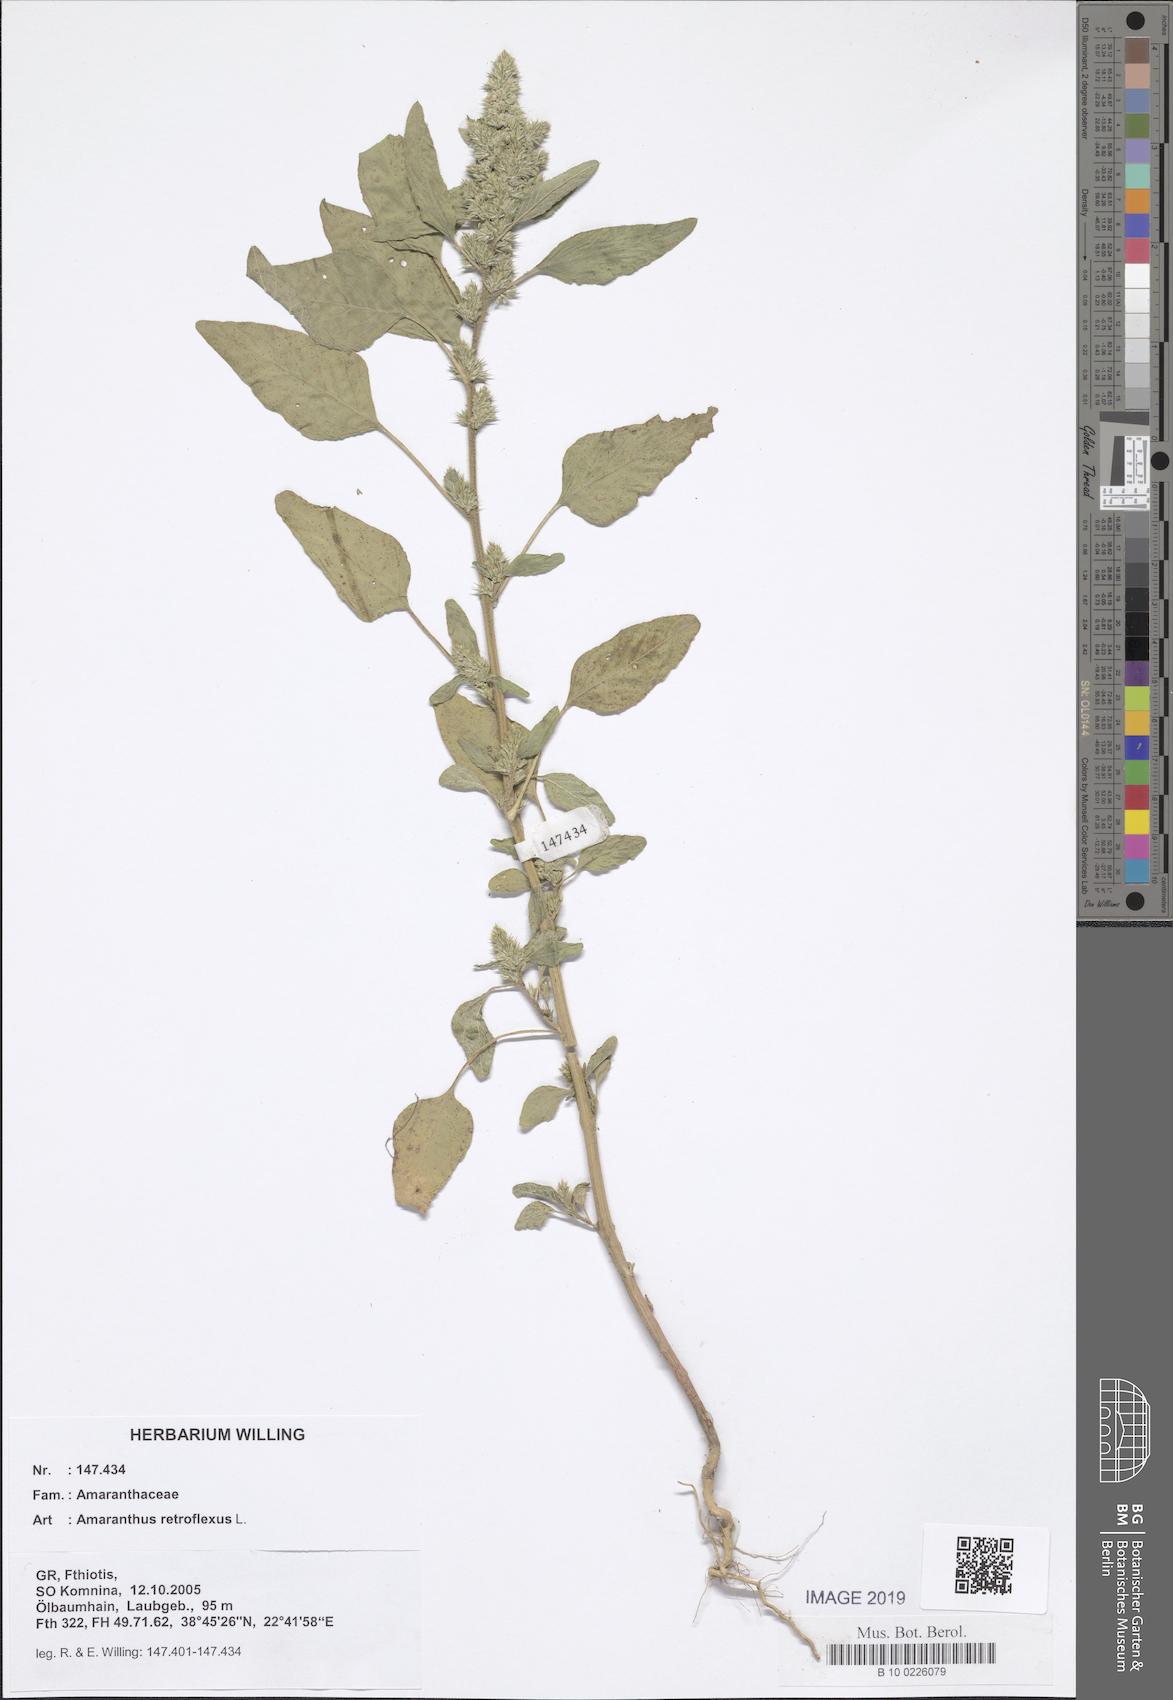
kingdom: Plantae
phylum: Tracheophyta
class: Magnoliopsida
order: Caryophyllales
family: Amaranthaceae
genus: Amaranthus
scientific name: Amaranthus retroflexus
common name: Redroot amaranth
